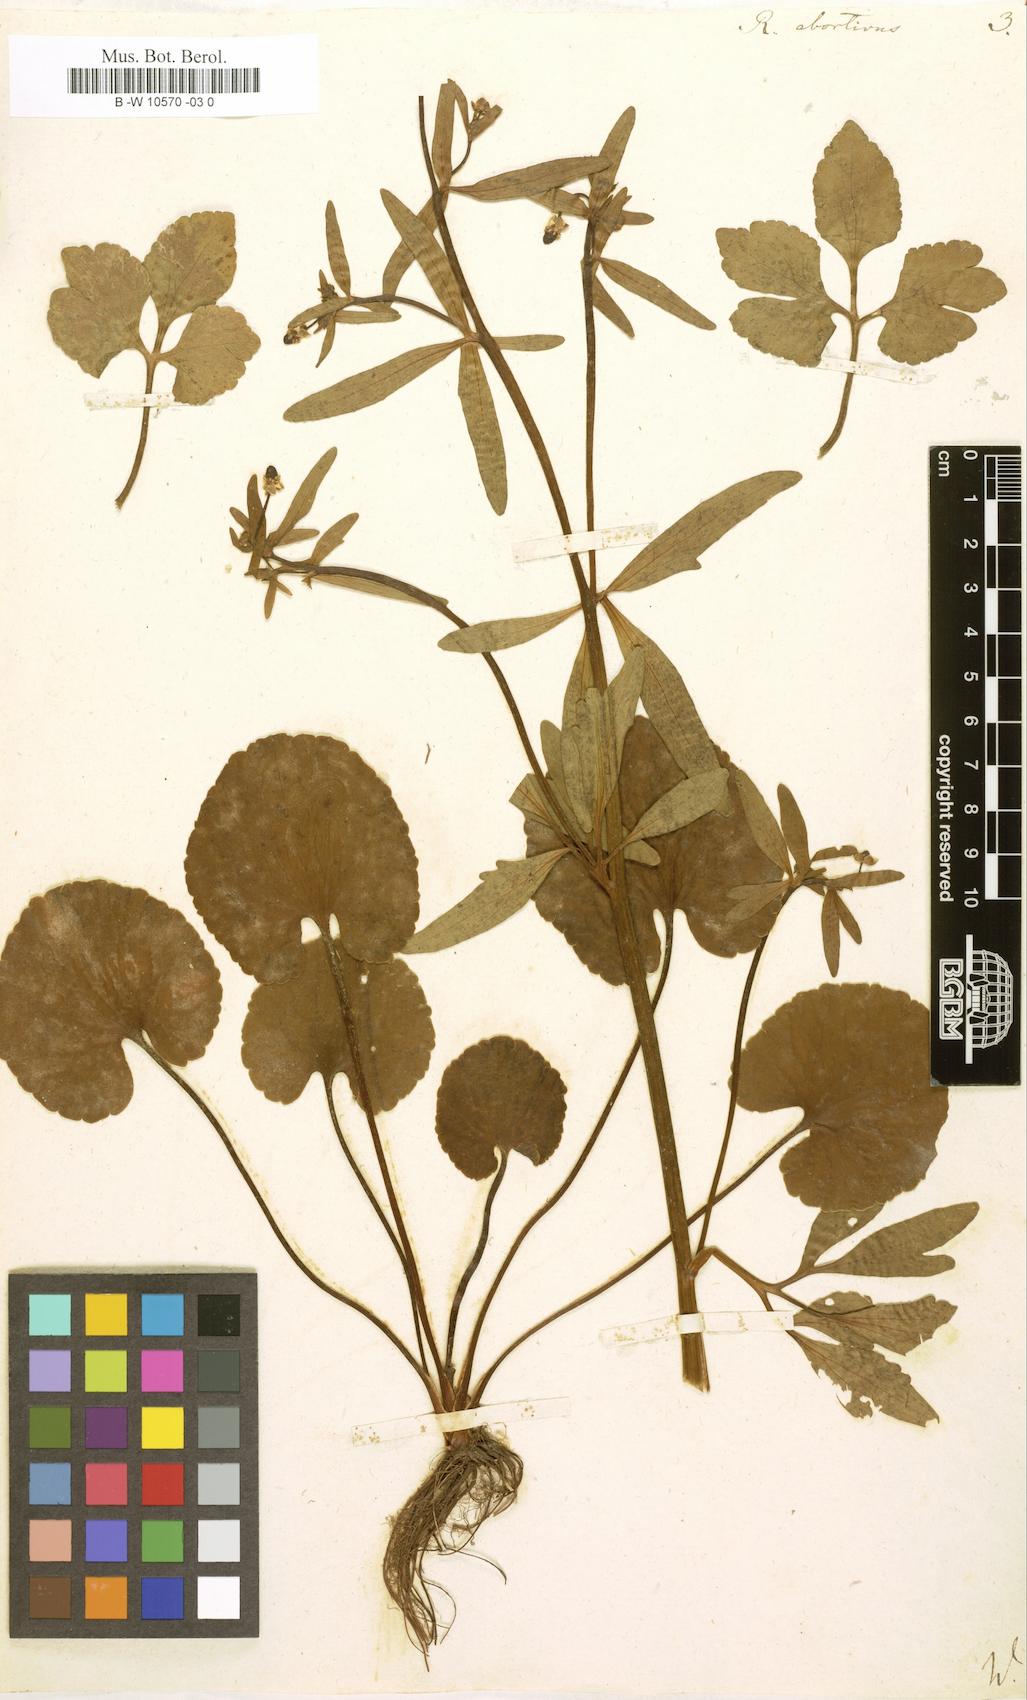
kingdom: Plantae
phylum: Tracheophyta
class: Magnoliopsida
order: Ranunculales
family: Ranunculaceae
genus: Ranunculus
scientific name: Ranunculus abortivus
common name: Early wood buttercup
